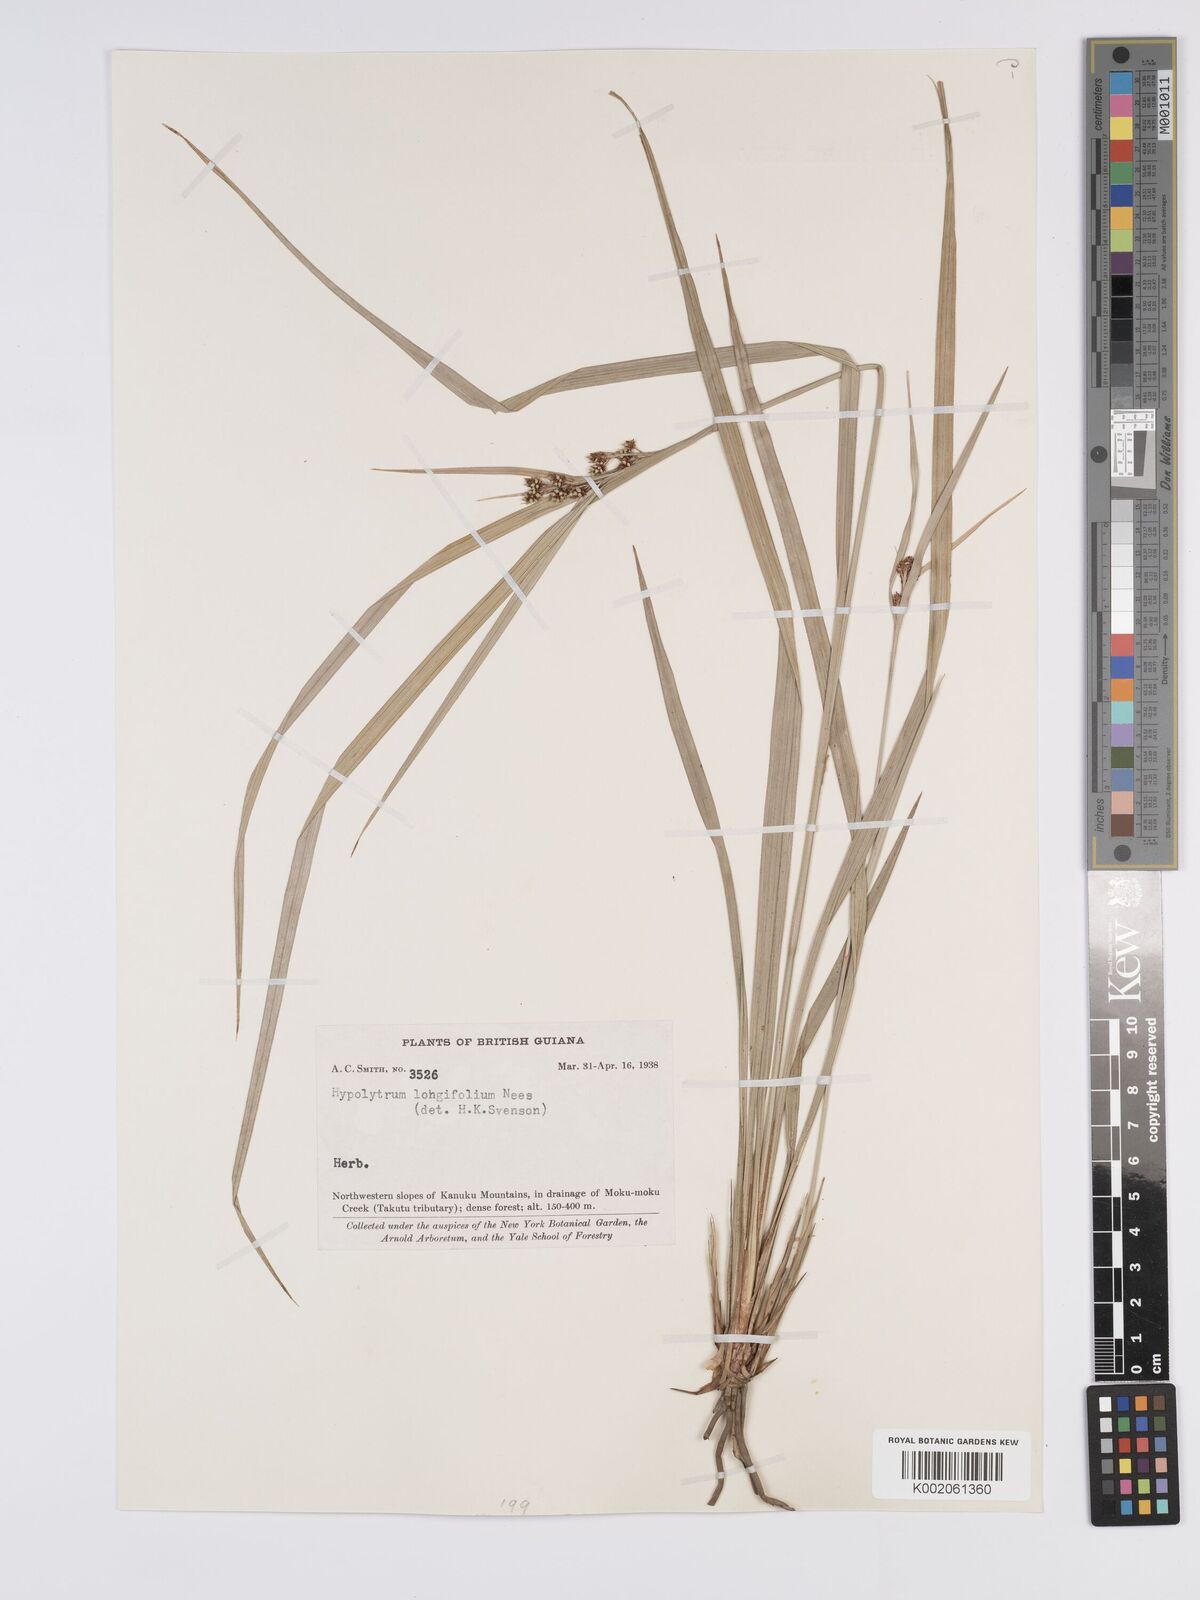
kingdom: Plantae
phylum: Tracheophyta
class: Liliopsida
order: Poales
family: Cyperaceae
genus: Hypolytrum
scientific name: Hypolytrum longifolium
